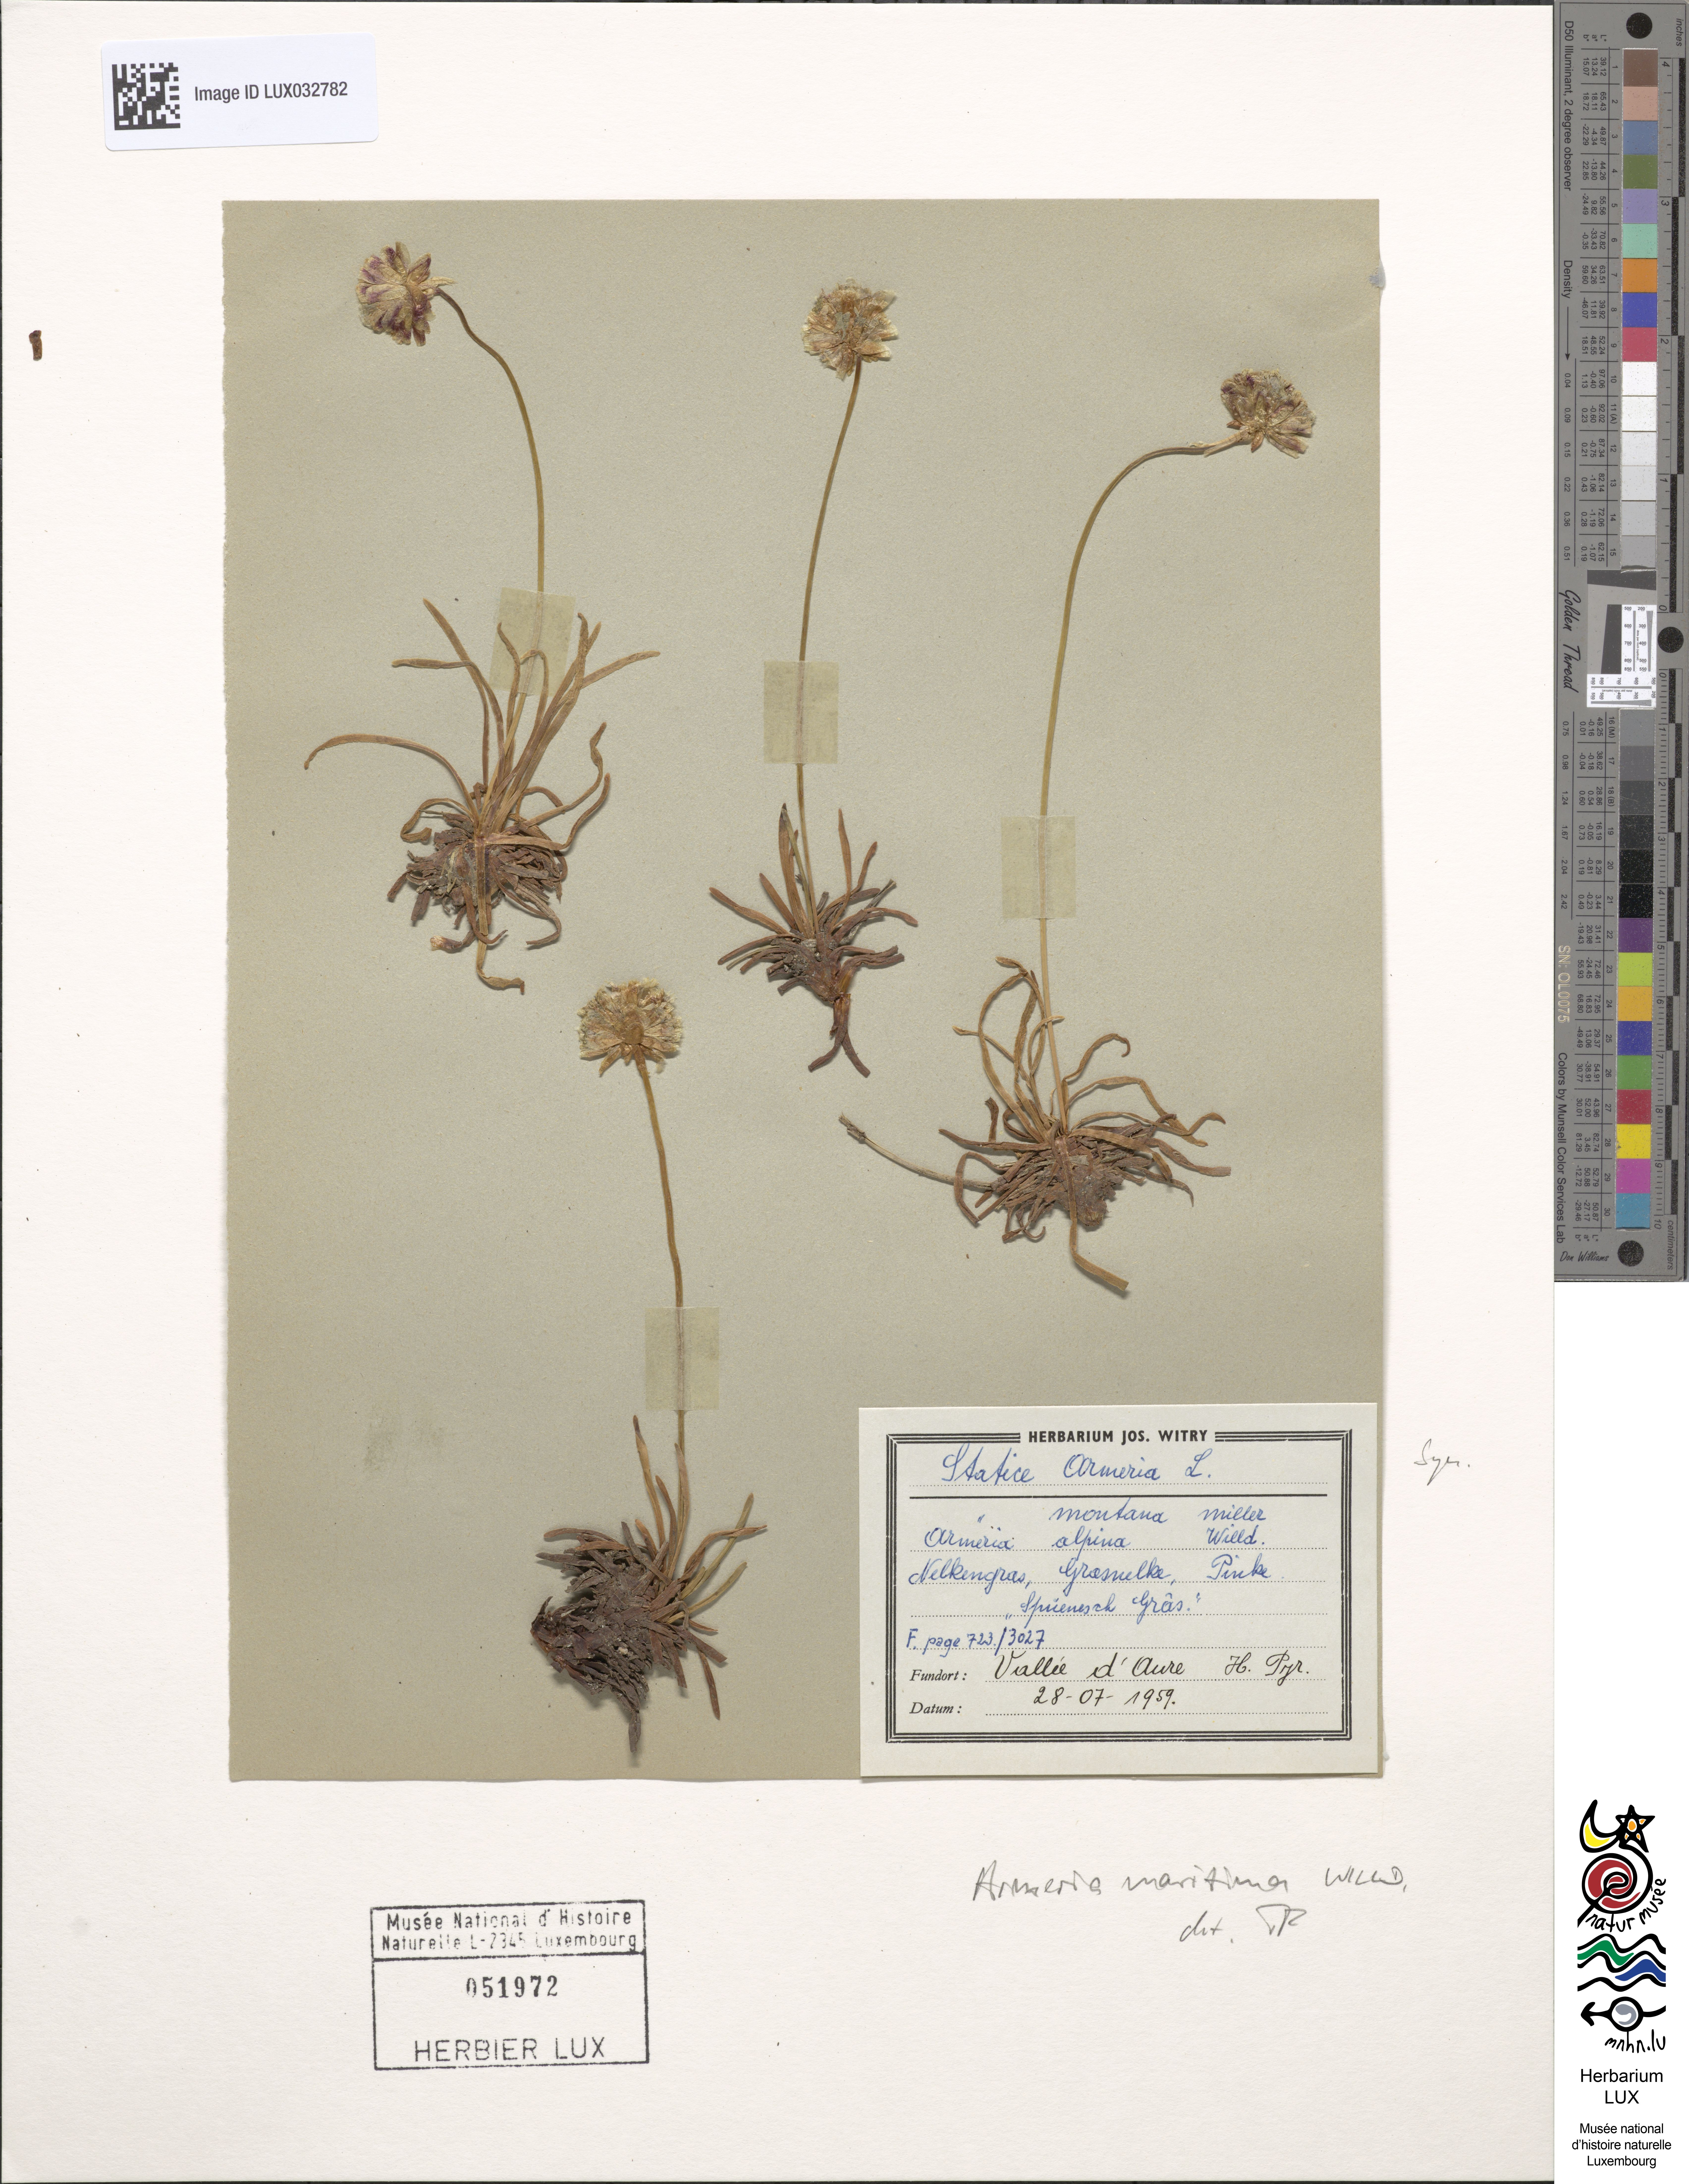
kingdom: Plantae
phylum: Tracheophyta
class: Magnoliopsida
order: Caryophyllales
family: Plumbaginaceae
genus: Armeria
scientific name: Armeria maritima
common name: Thrift
